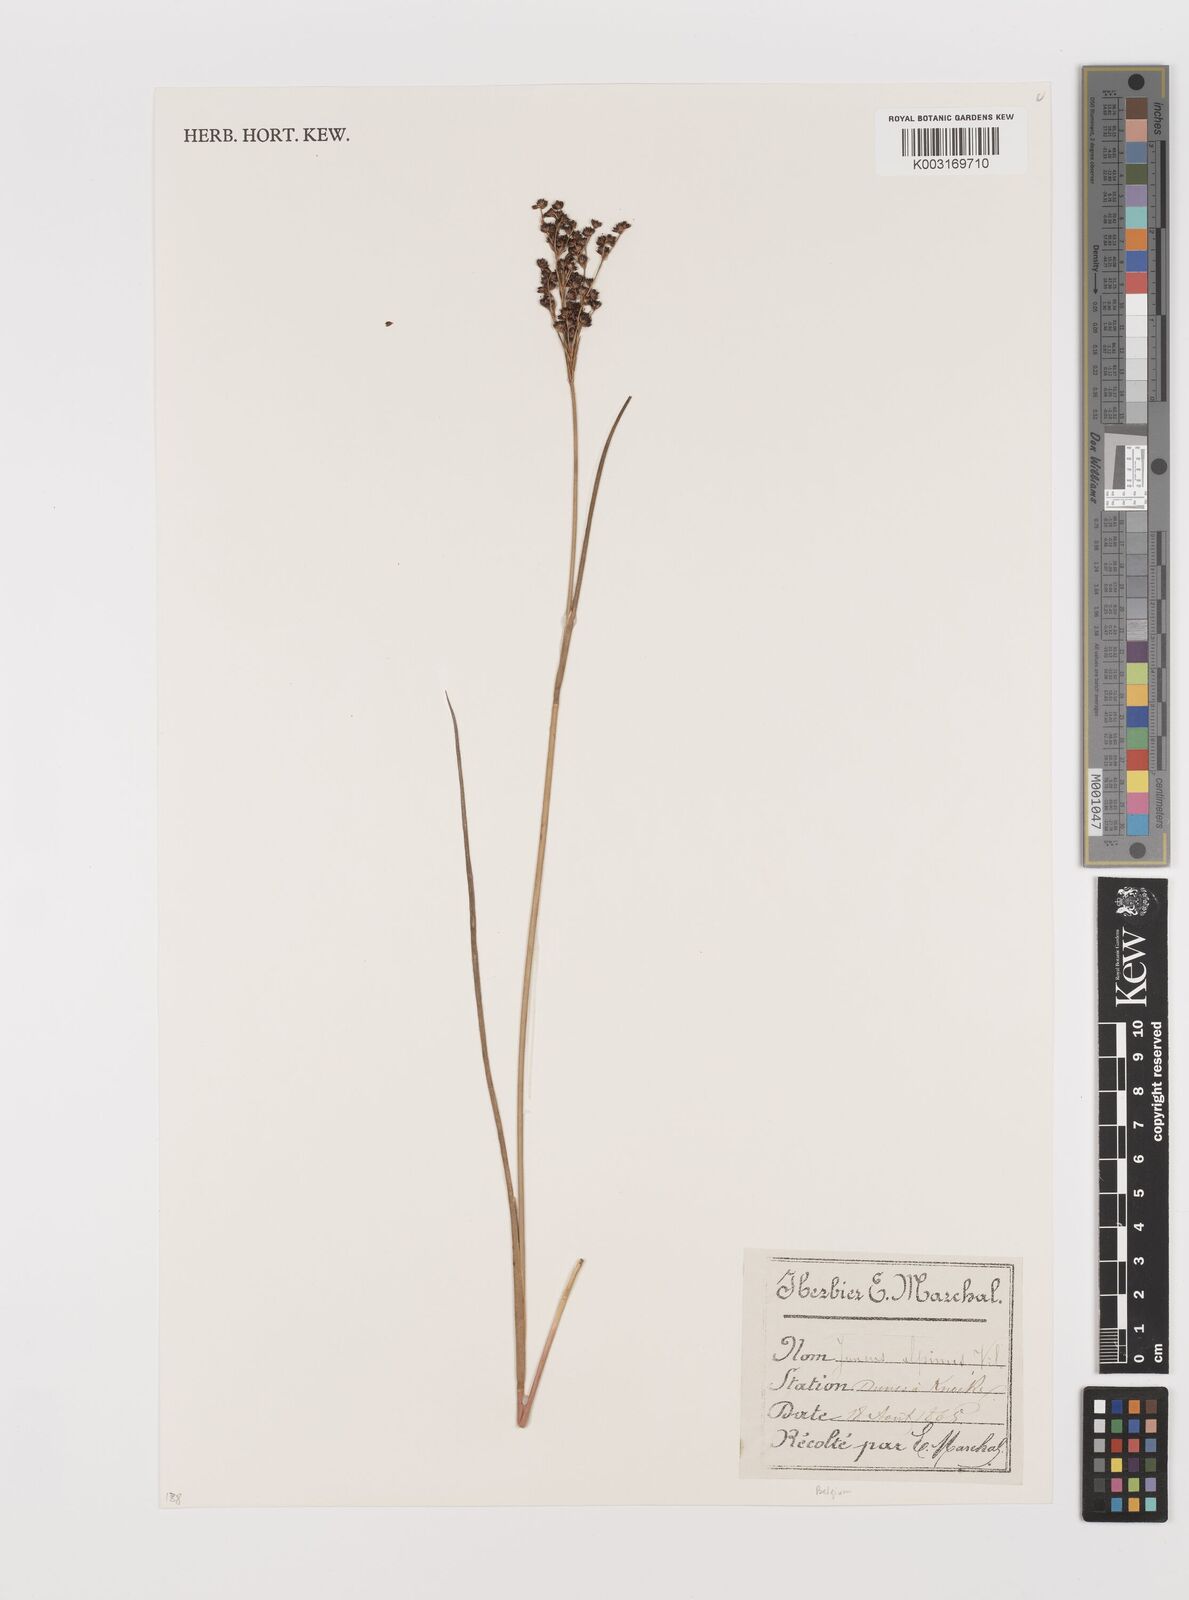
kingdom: Plantae
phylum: Tracheophyta
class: Liliopsida
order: Poales
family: Juncaceae
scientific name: Juncaceae
